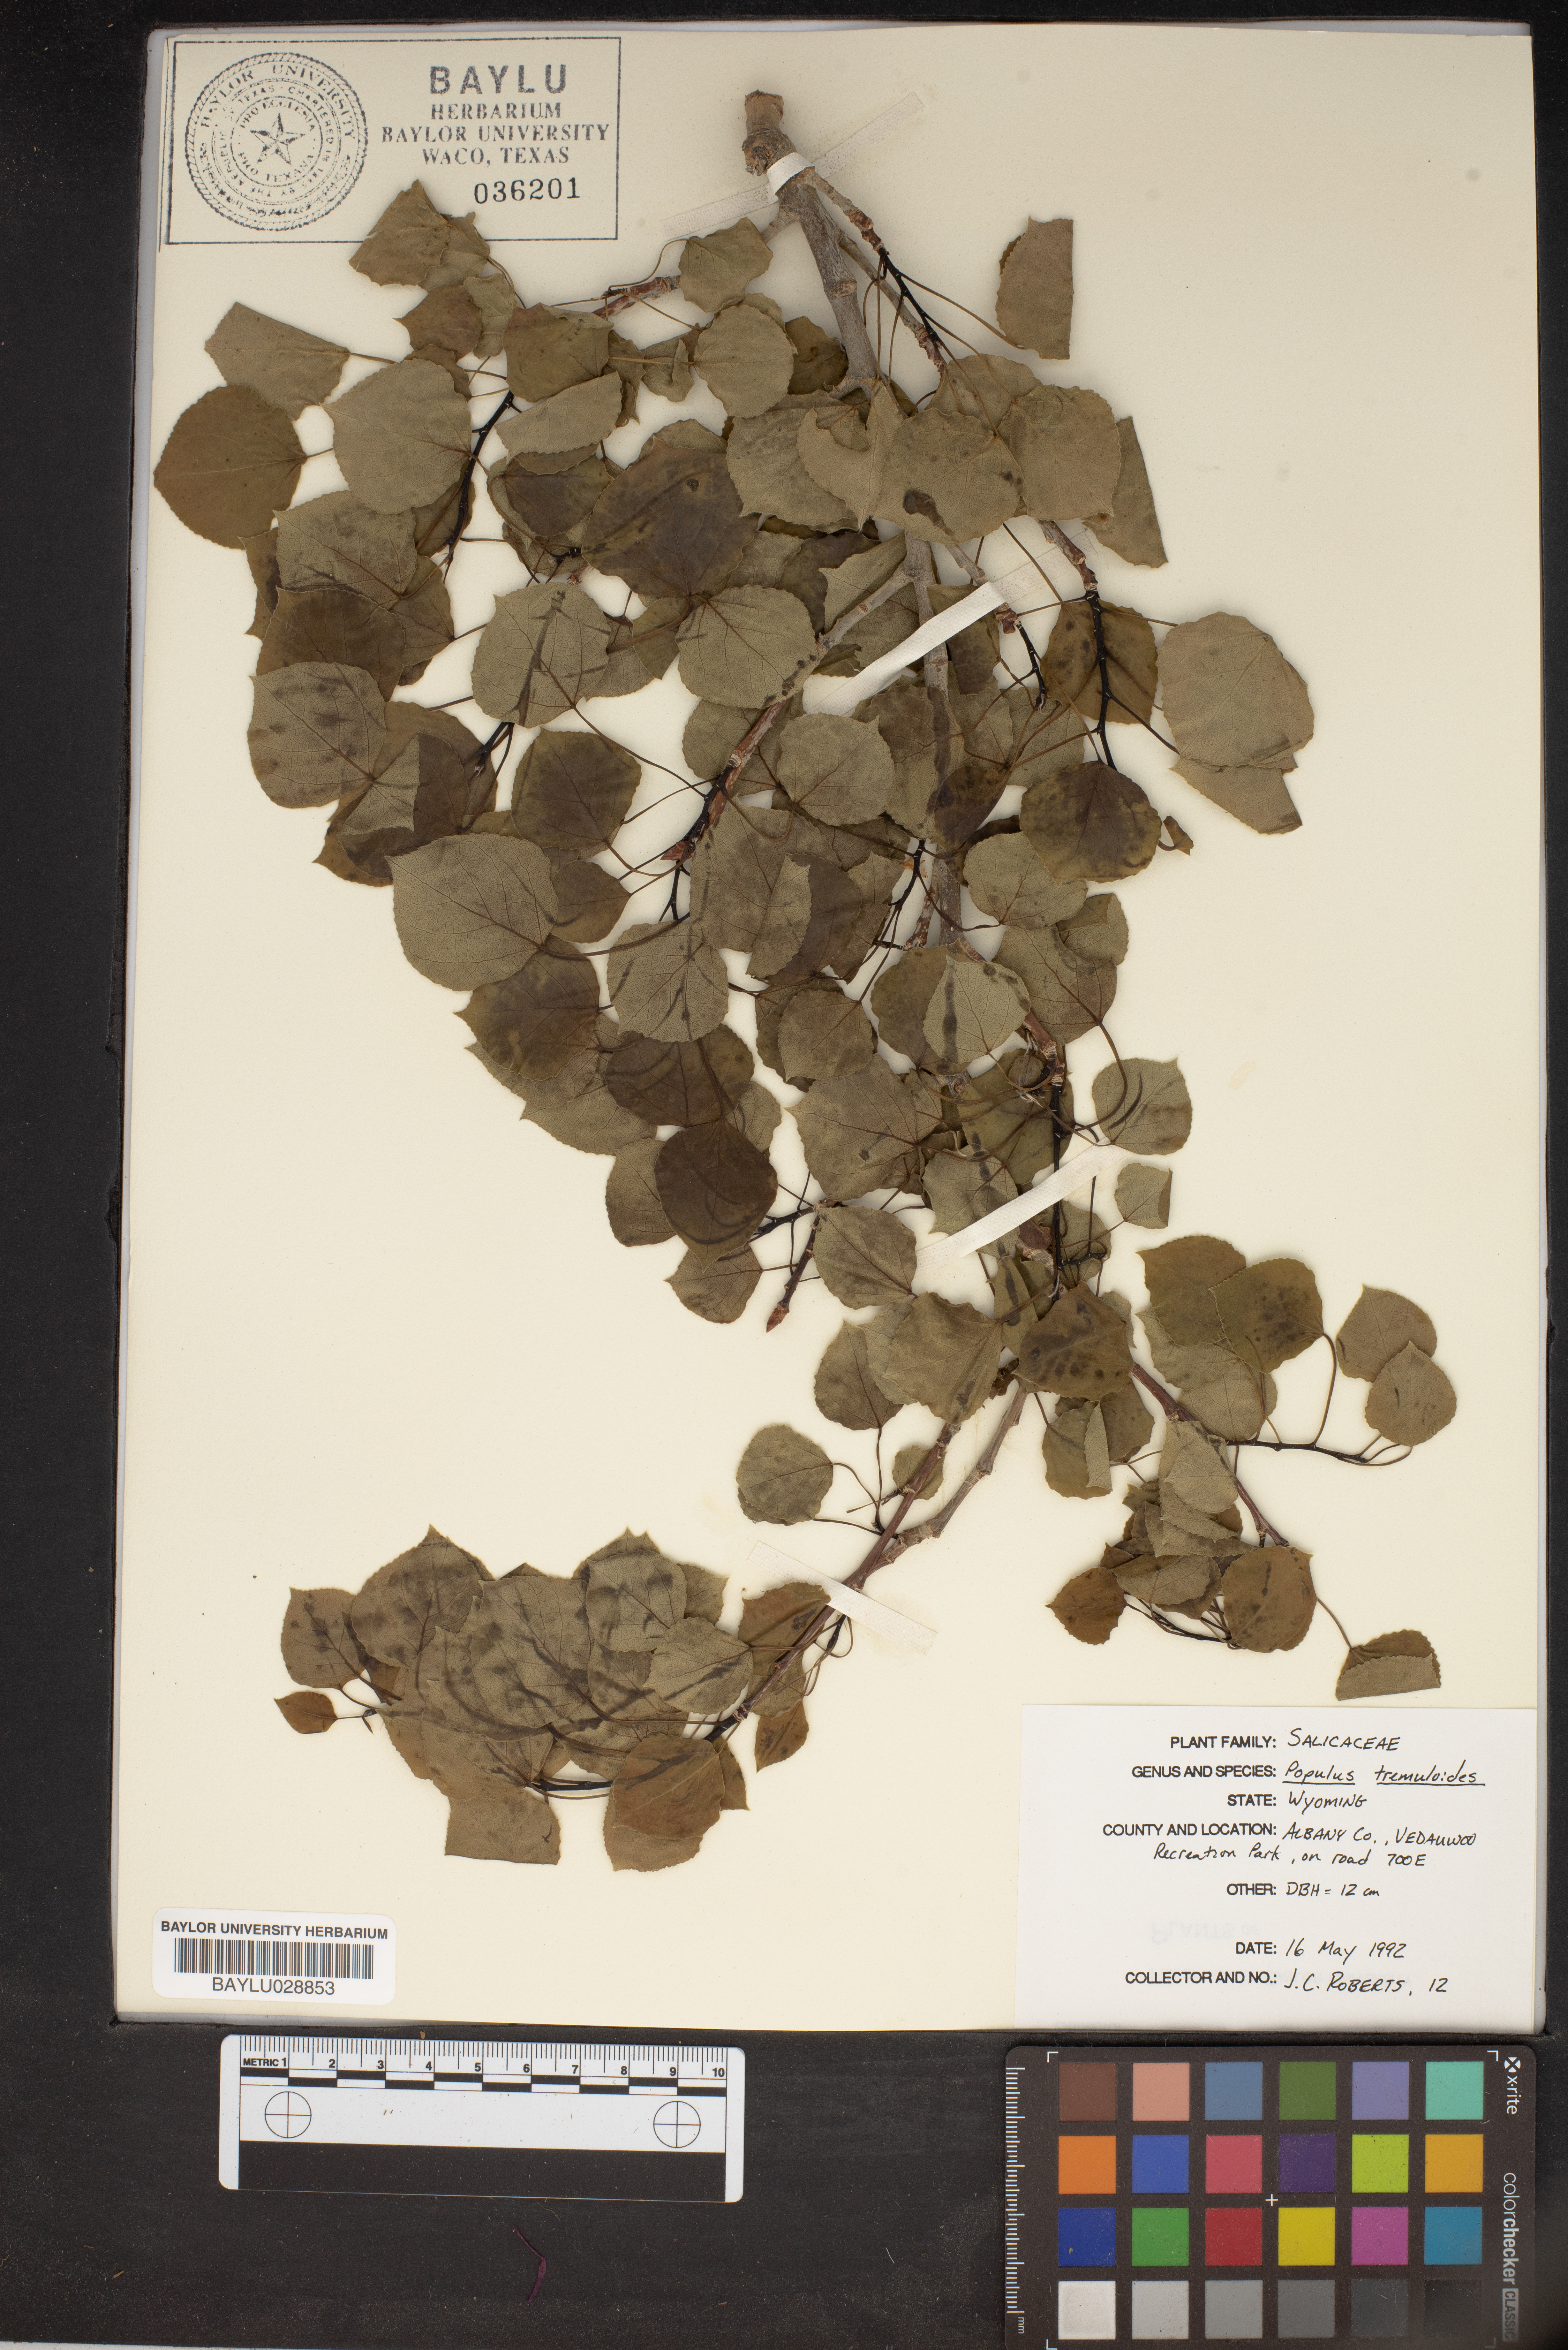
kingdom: Plantae
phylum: Tracheophyta
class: Magnoliopsida
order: Malpighiales
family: Salicaceae
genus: Populus
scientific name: Populus tremuloides
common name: Quaking aspen
